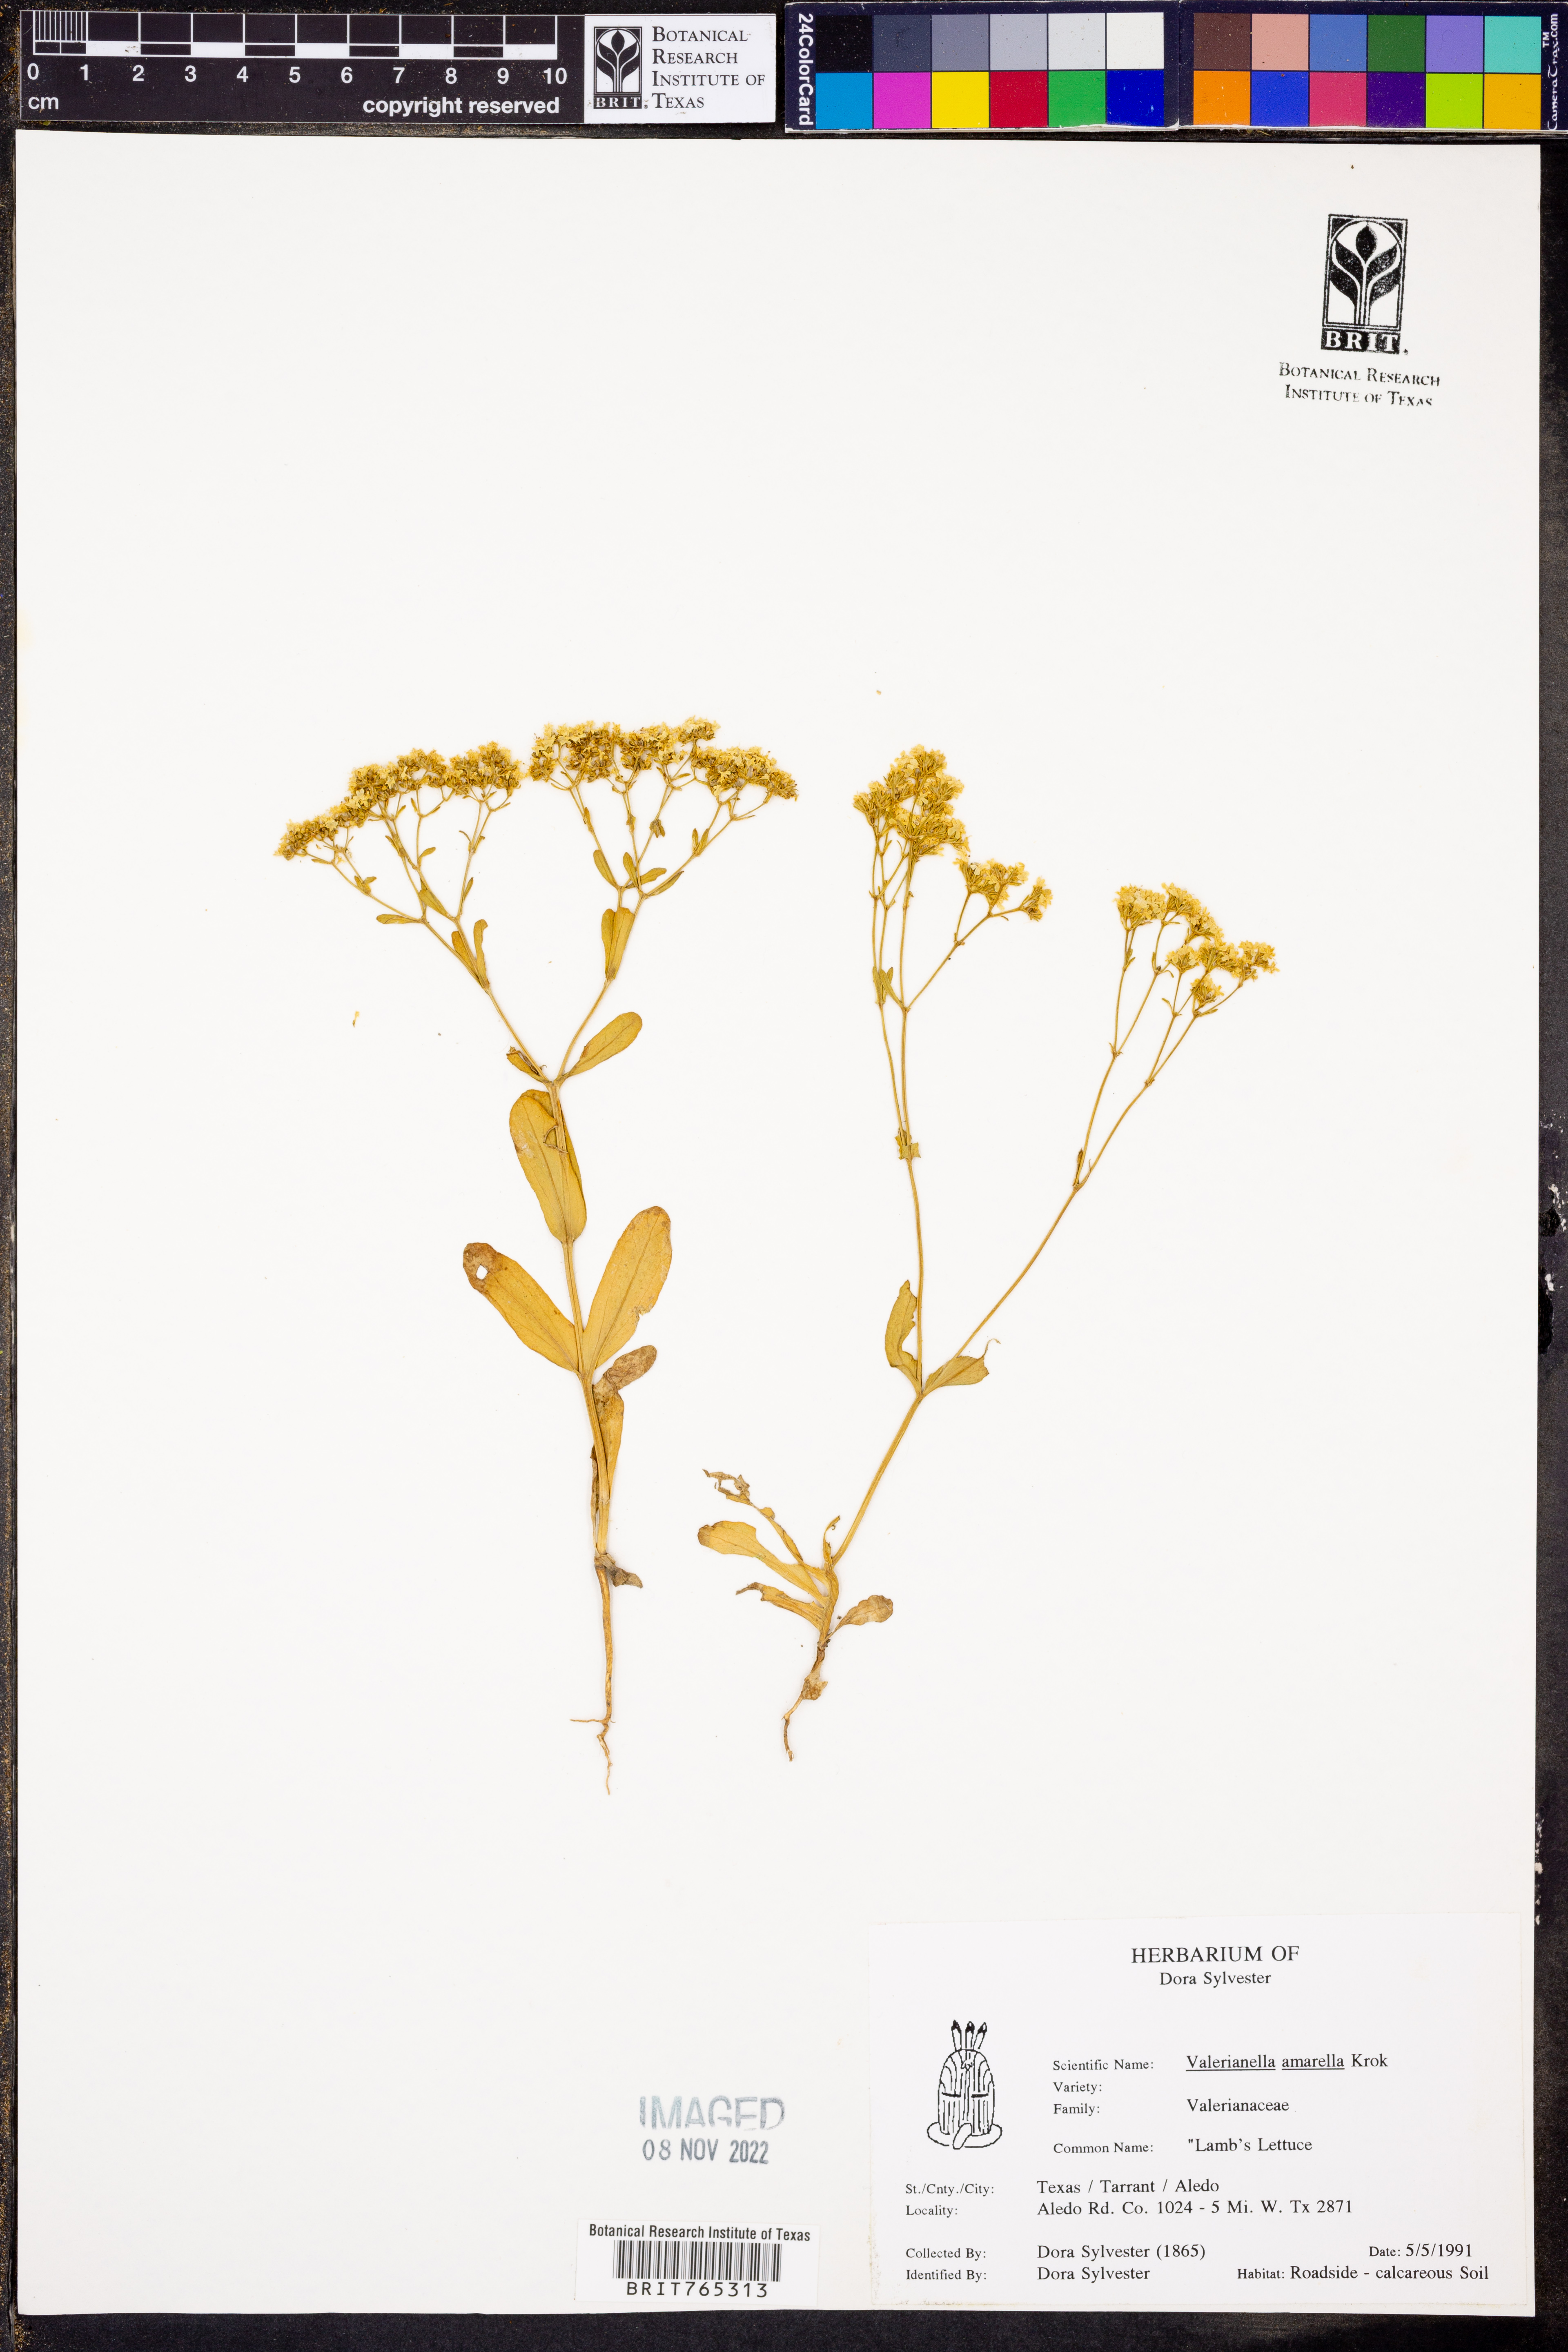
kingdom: Plantae
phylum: Tracheophyta
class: Magnoliopsida
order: Dipsacales
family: Caprifoliaceae
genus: Valerianella
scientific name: Valerianella amarella
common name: Hariy cornsalad
